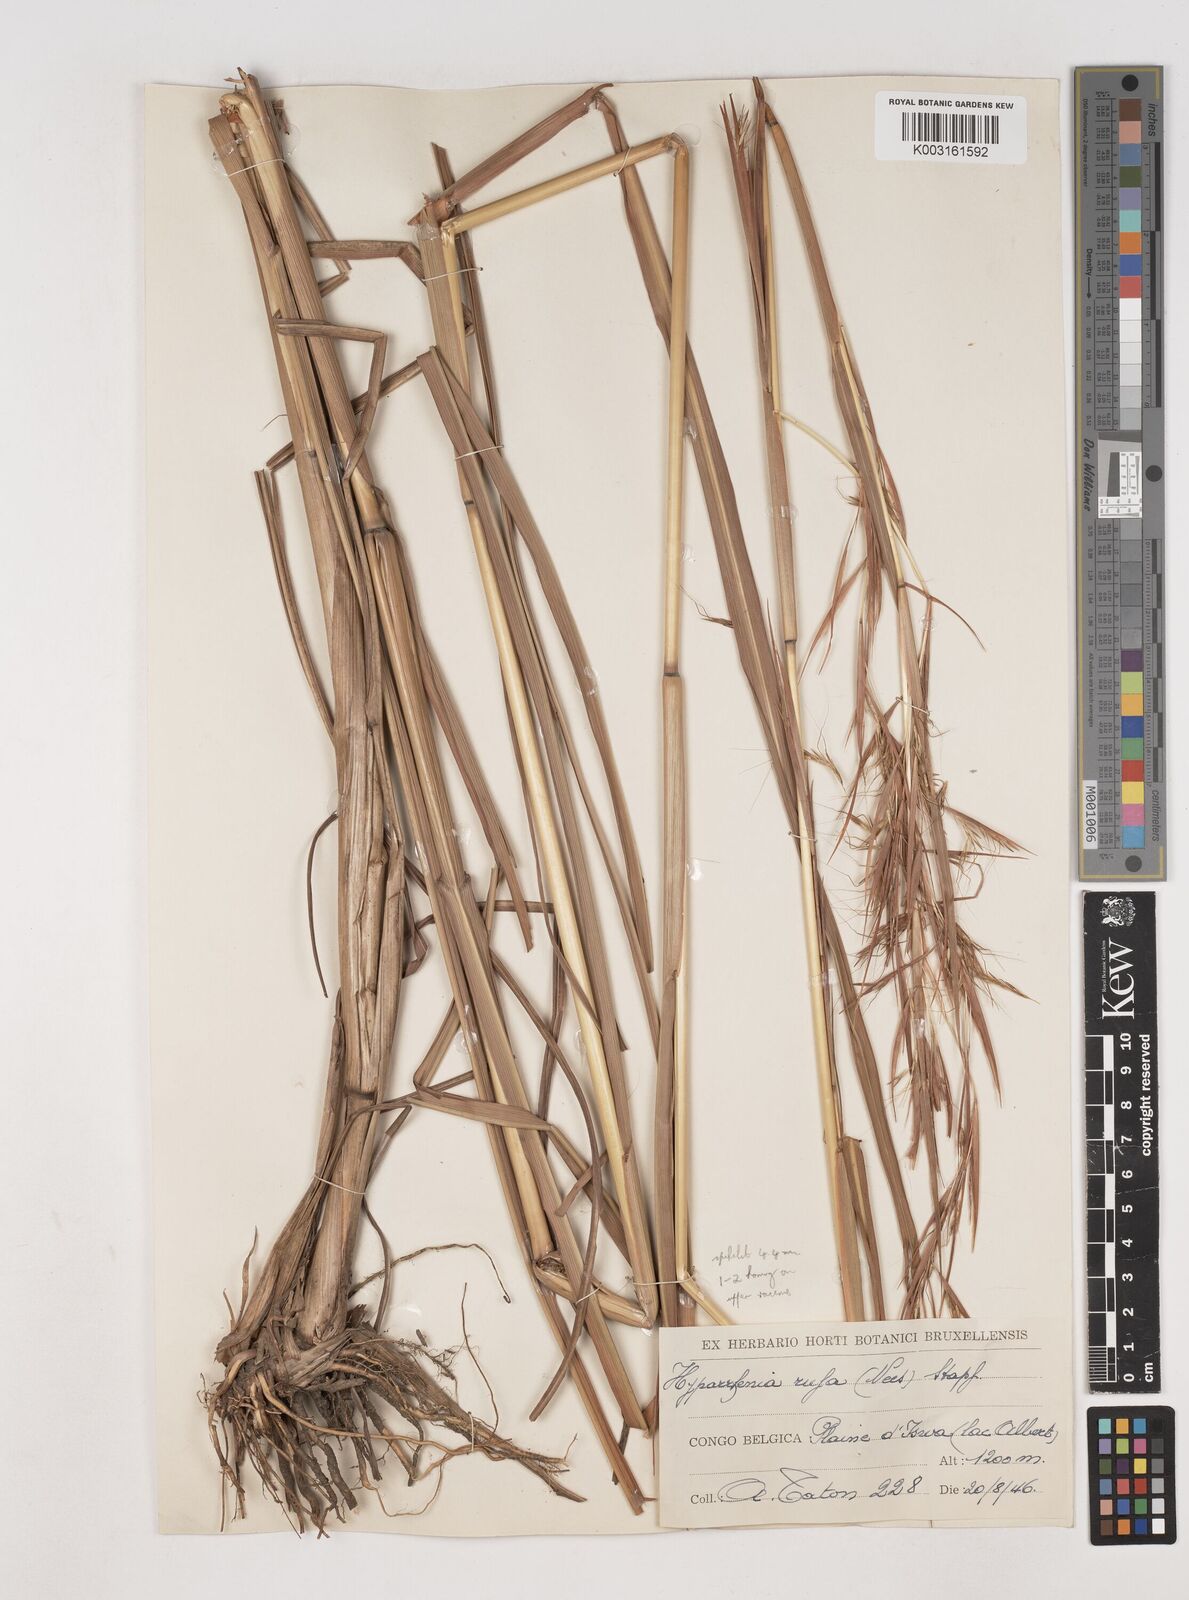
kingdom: Plantae
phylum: Tracheophyta
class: Liliopsida
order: Poales
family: Poaceae
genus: Hyparrhenia
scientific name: Hyparrhenia rufa
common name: Jaraguagrass
